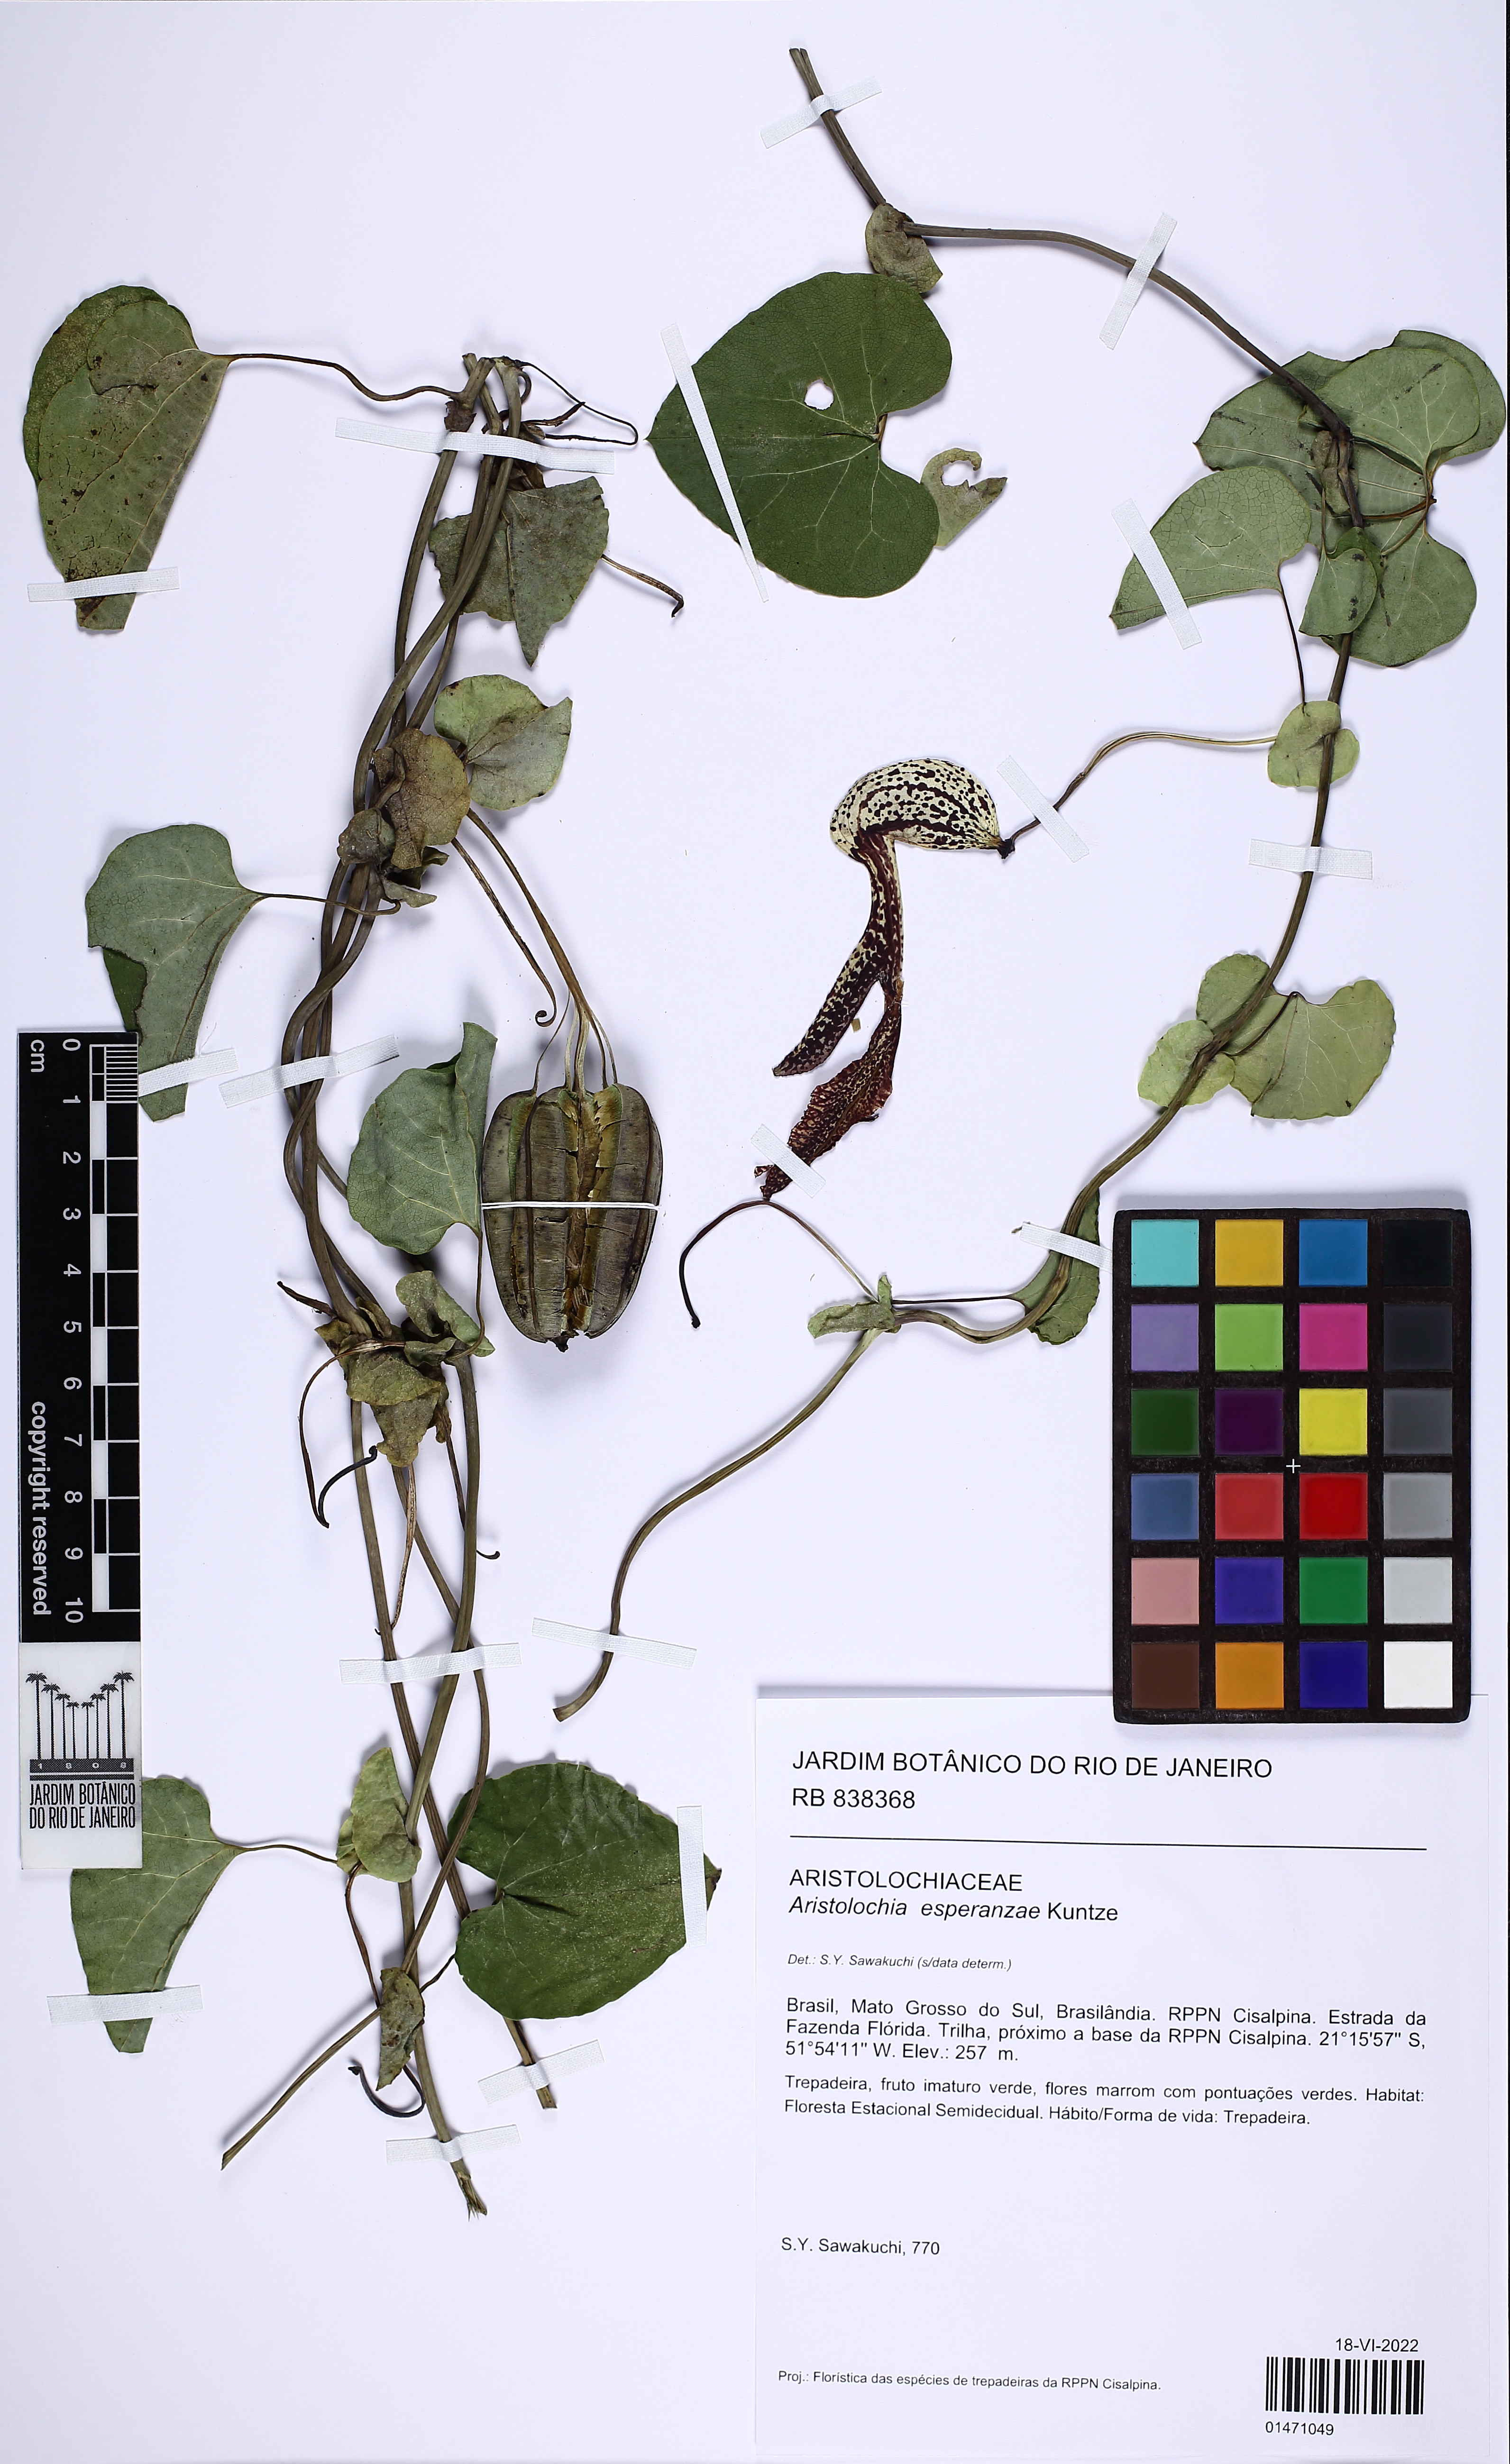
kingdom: Plantae
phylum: Tracheophyta
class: Magnoliopsida
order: Piperales
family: Aristolochiaceae
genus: Aristolochia
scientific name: Aristolochia esperanzae
